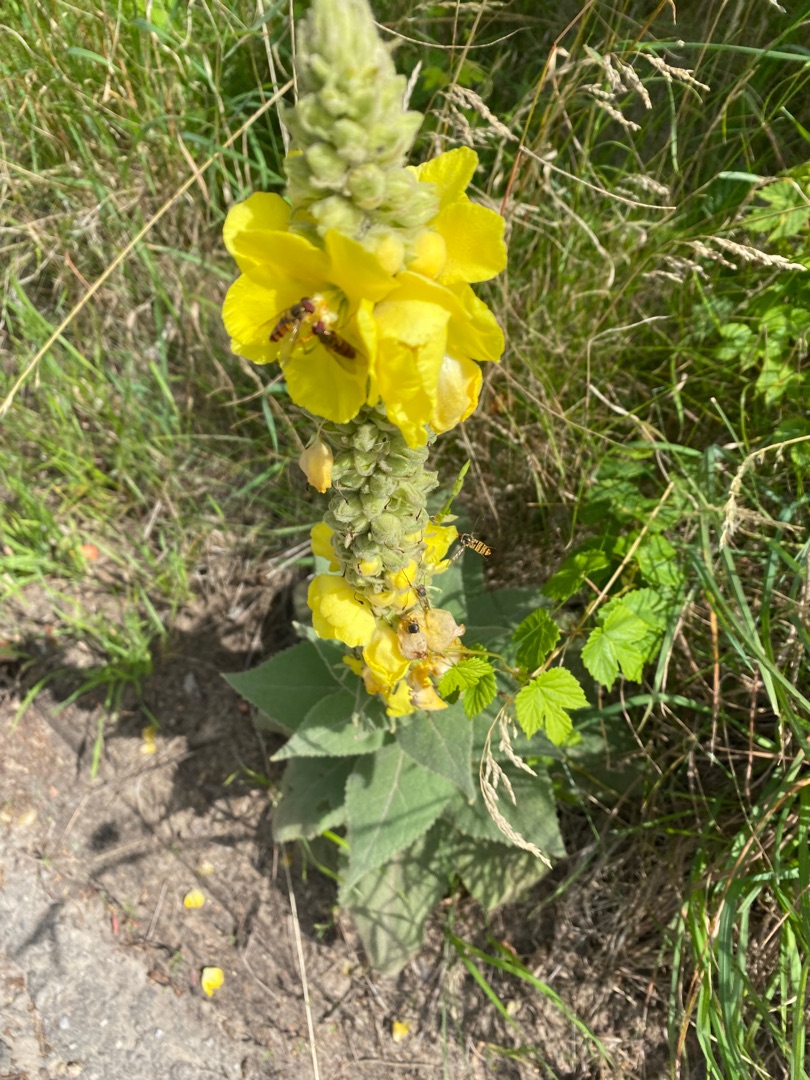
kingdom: Plantae
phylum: Tracheophyta
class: Magnoliopsida
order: Lamiales
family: Scrophulariaceae
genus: Verbascum
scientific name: Verbascum
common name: Kongelysslægten
